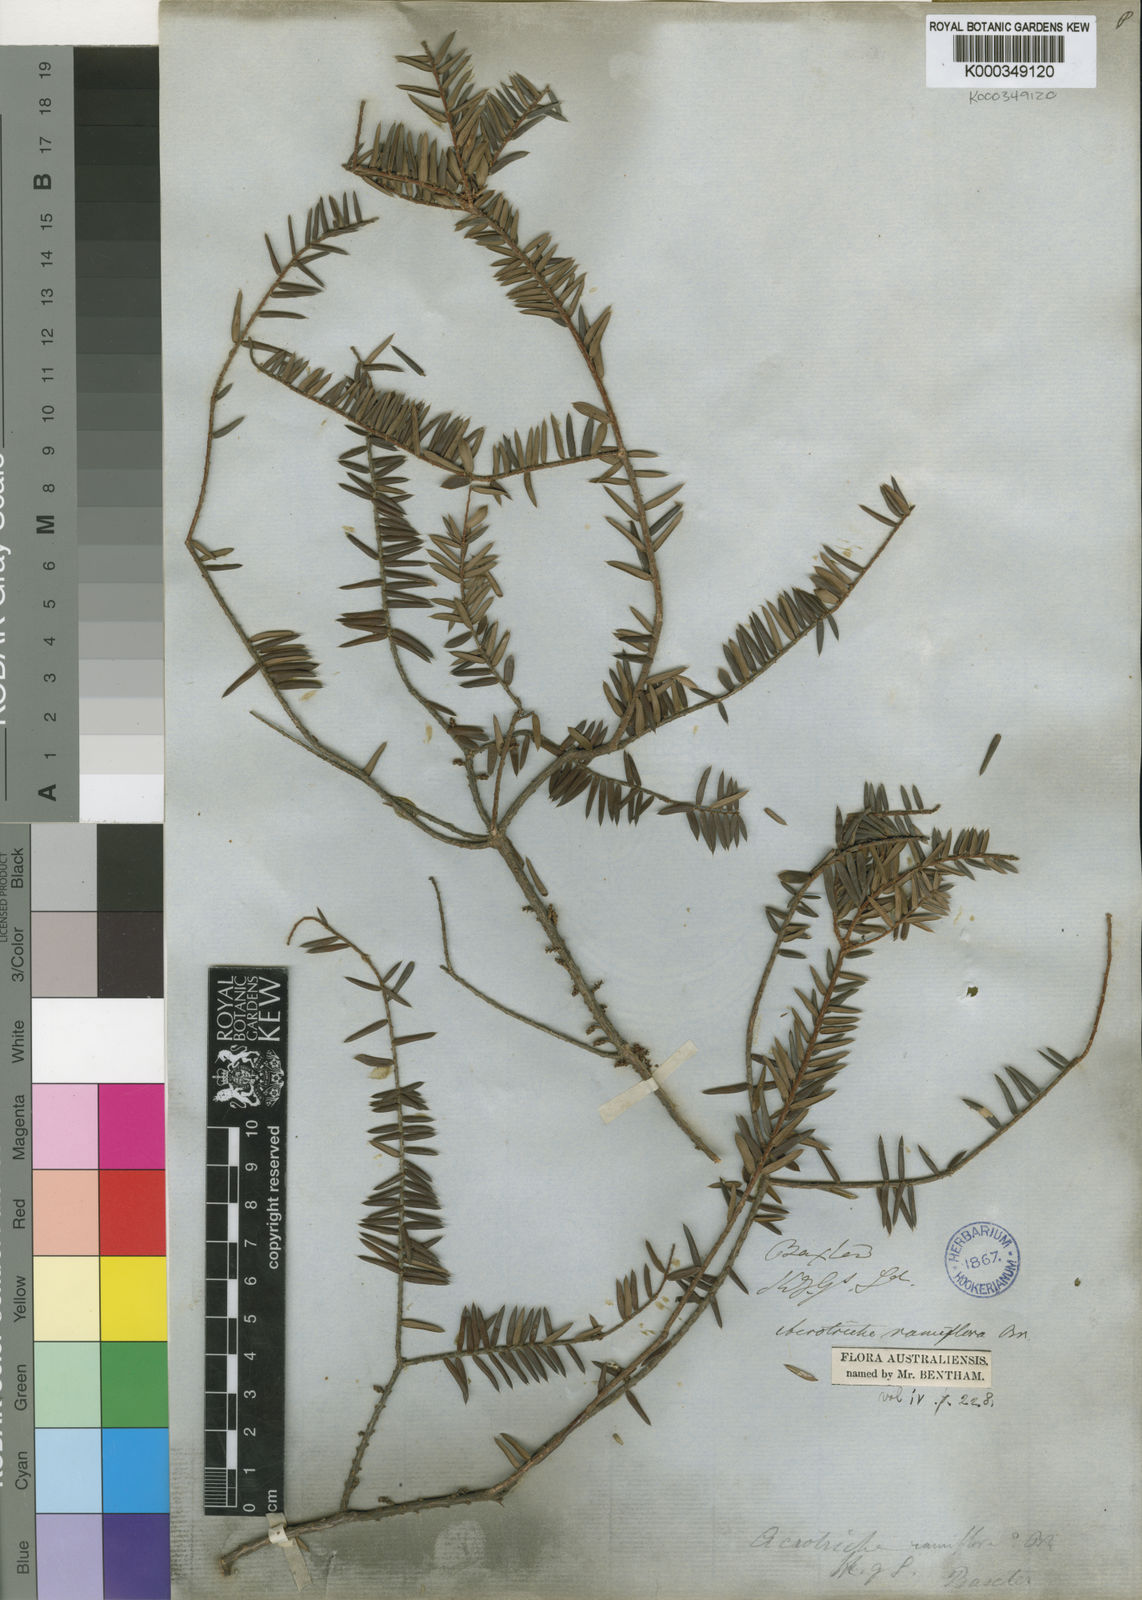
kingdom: Plantae
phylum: Tracheophyta
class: Magnoliopsida
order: Ericales
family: Ericaceae
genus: Acrotriche
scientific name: Acrotriche ramiflora
